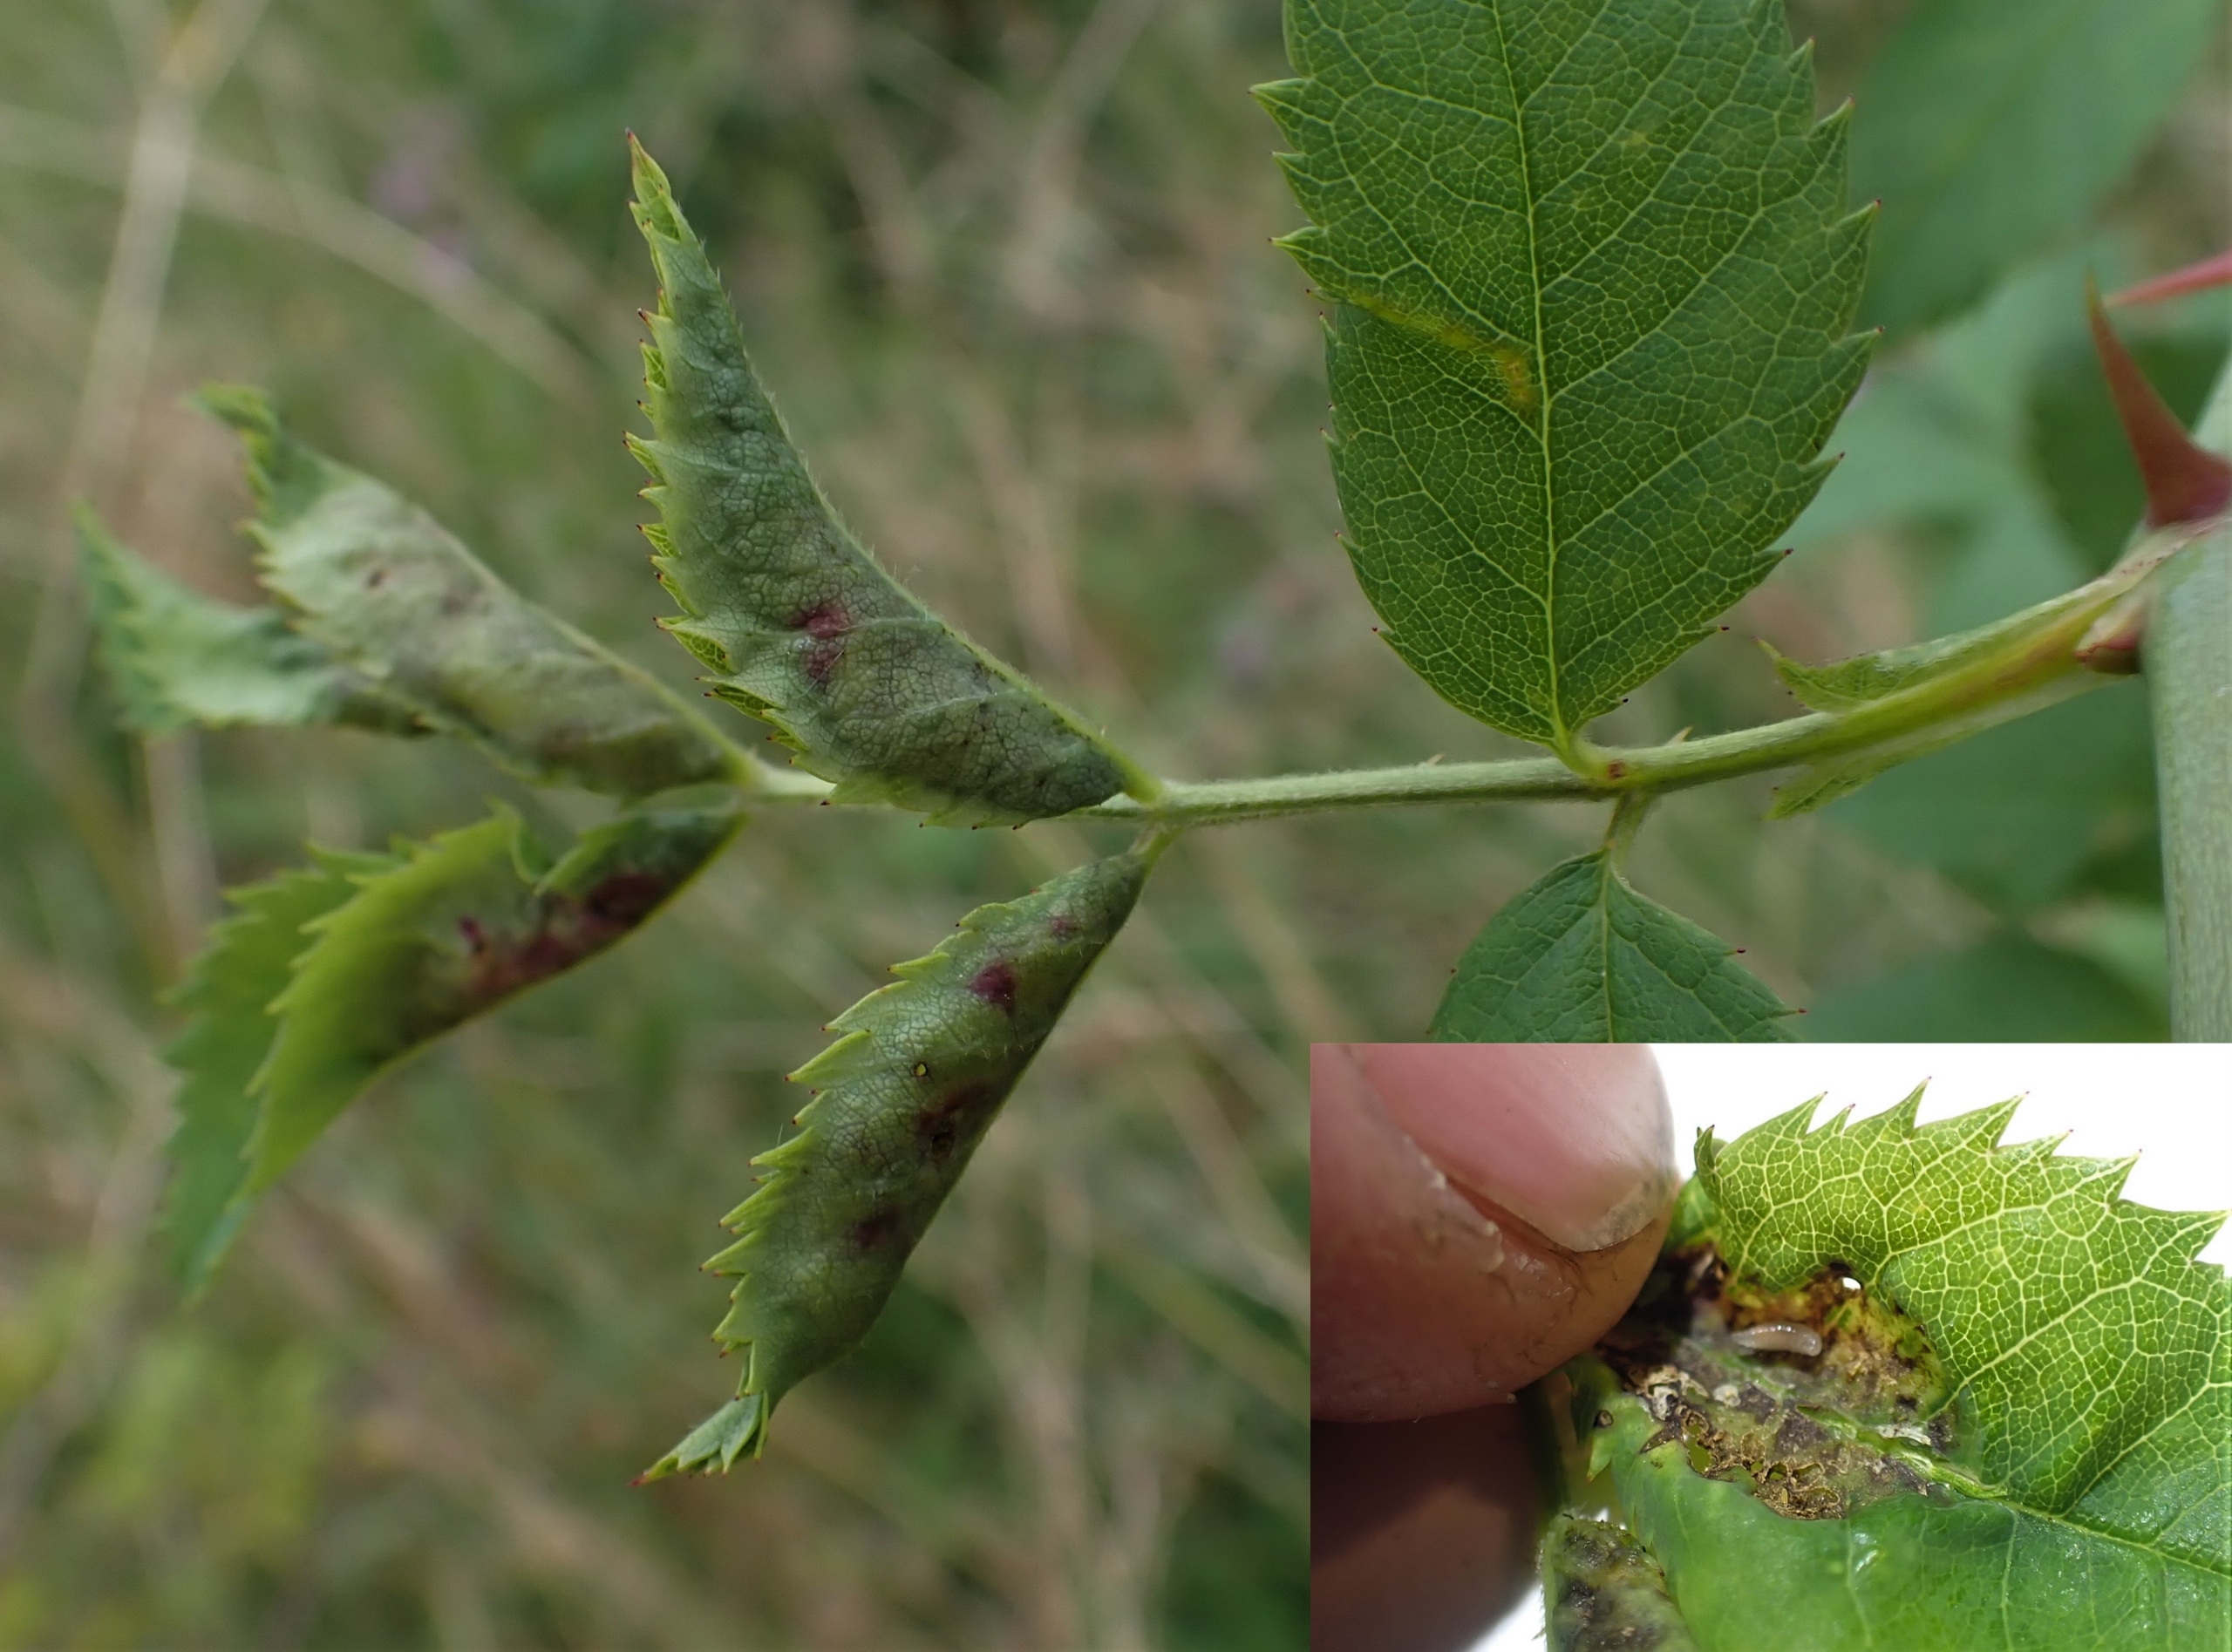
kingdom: Animalia
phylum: Arthropoda
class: Insecta
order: Diptera
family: Cecidomyiidae
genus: Wachtliella
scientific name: Wachtliella rosae
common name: Rosenbladgalmyg
